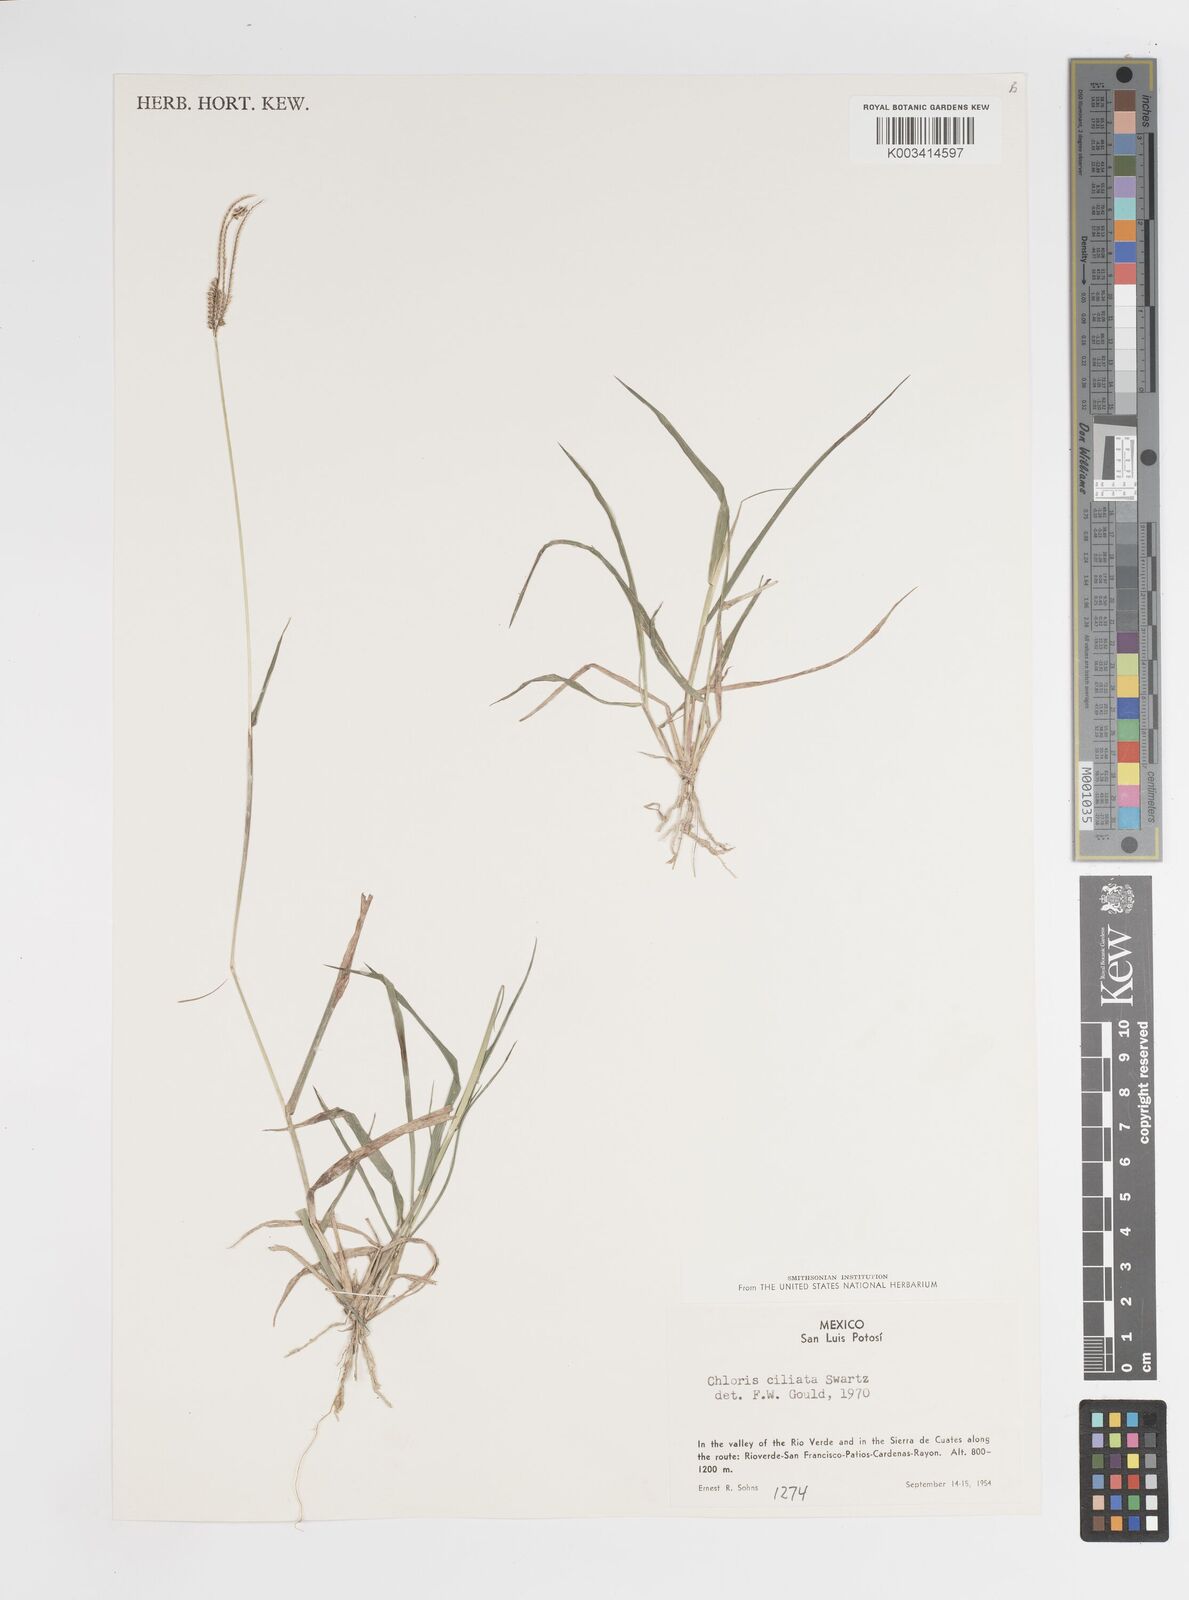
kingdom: Plantae
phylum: Tracheophyta
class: Liliopsida
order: Poales
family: Poaceae
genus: Stapfochloa
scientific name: Stapfochloa ciliata
